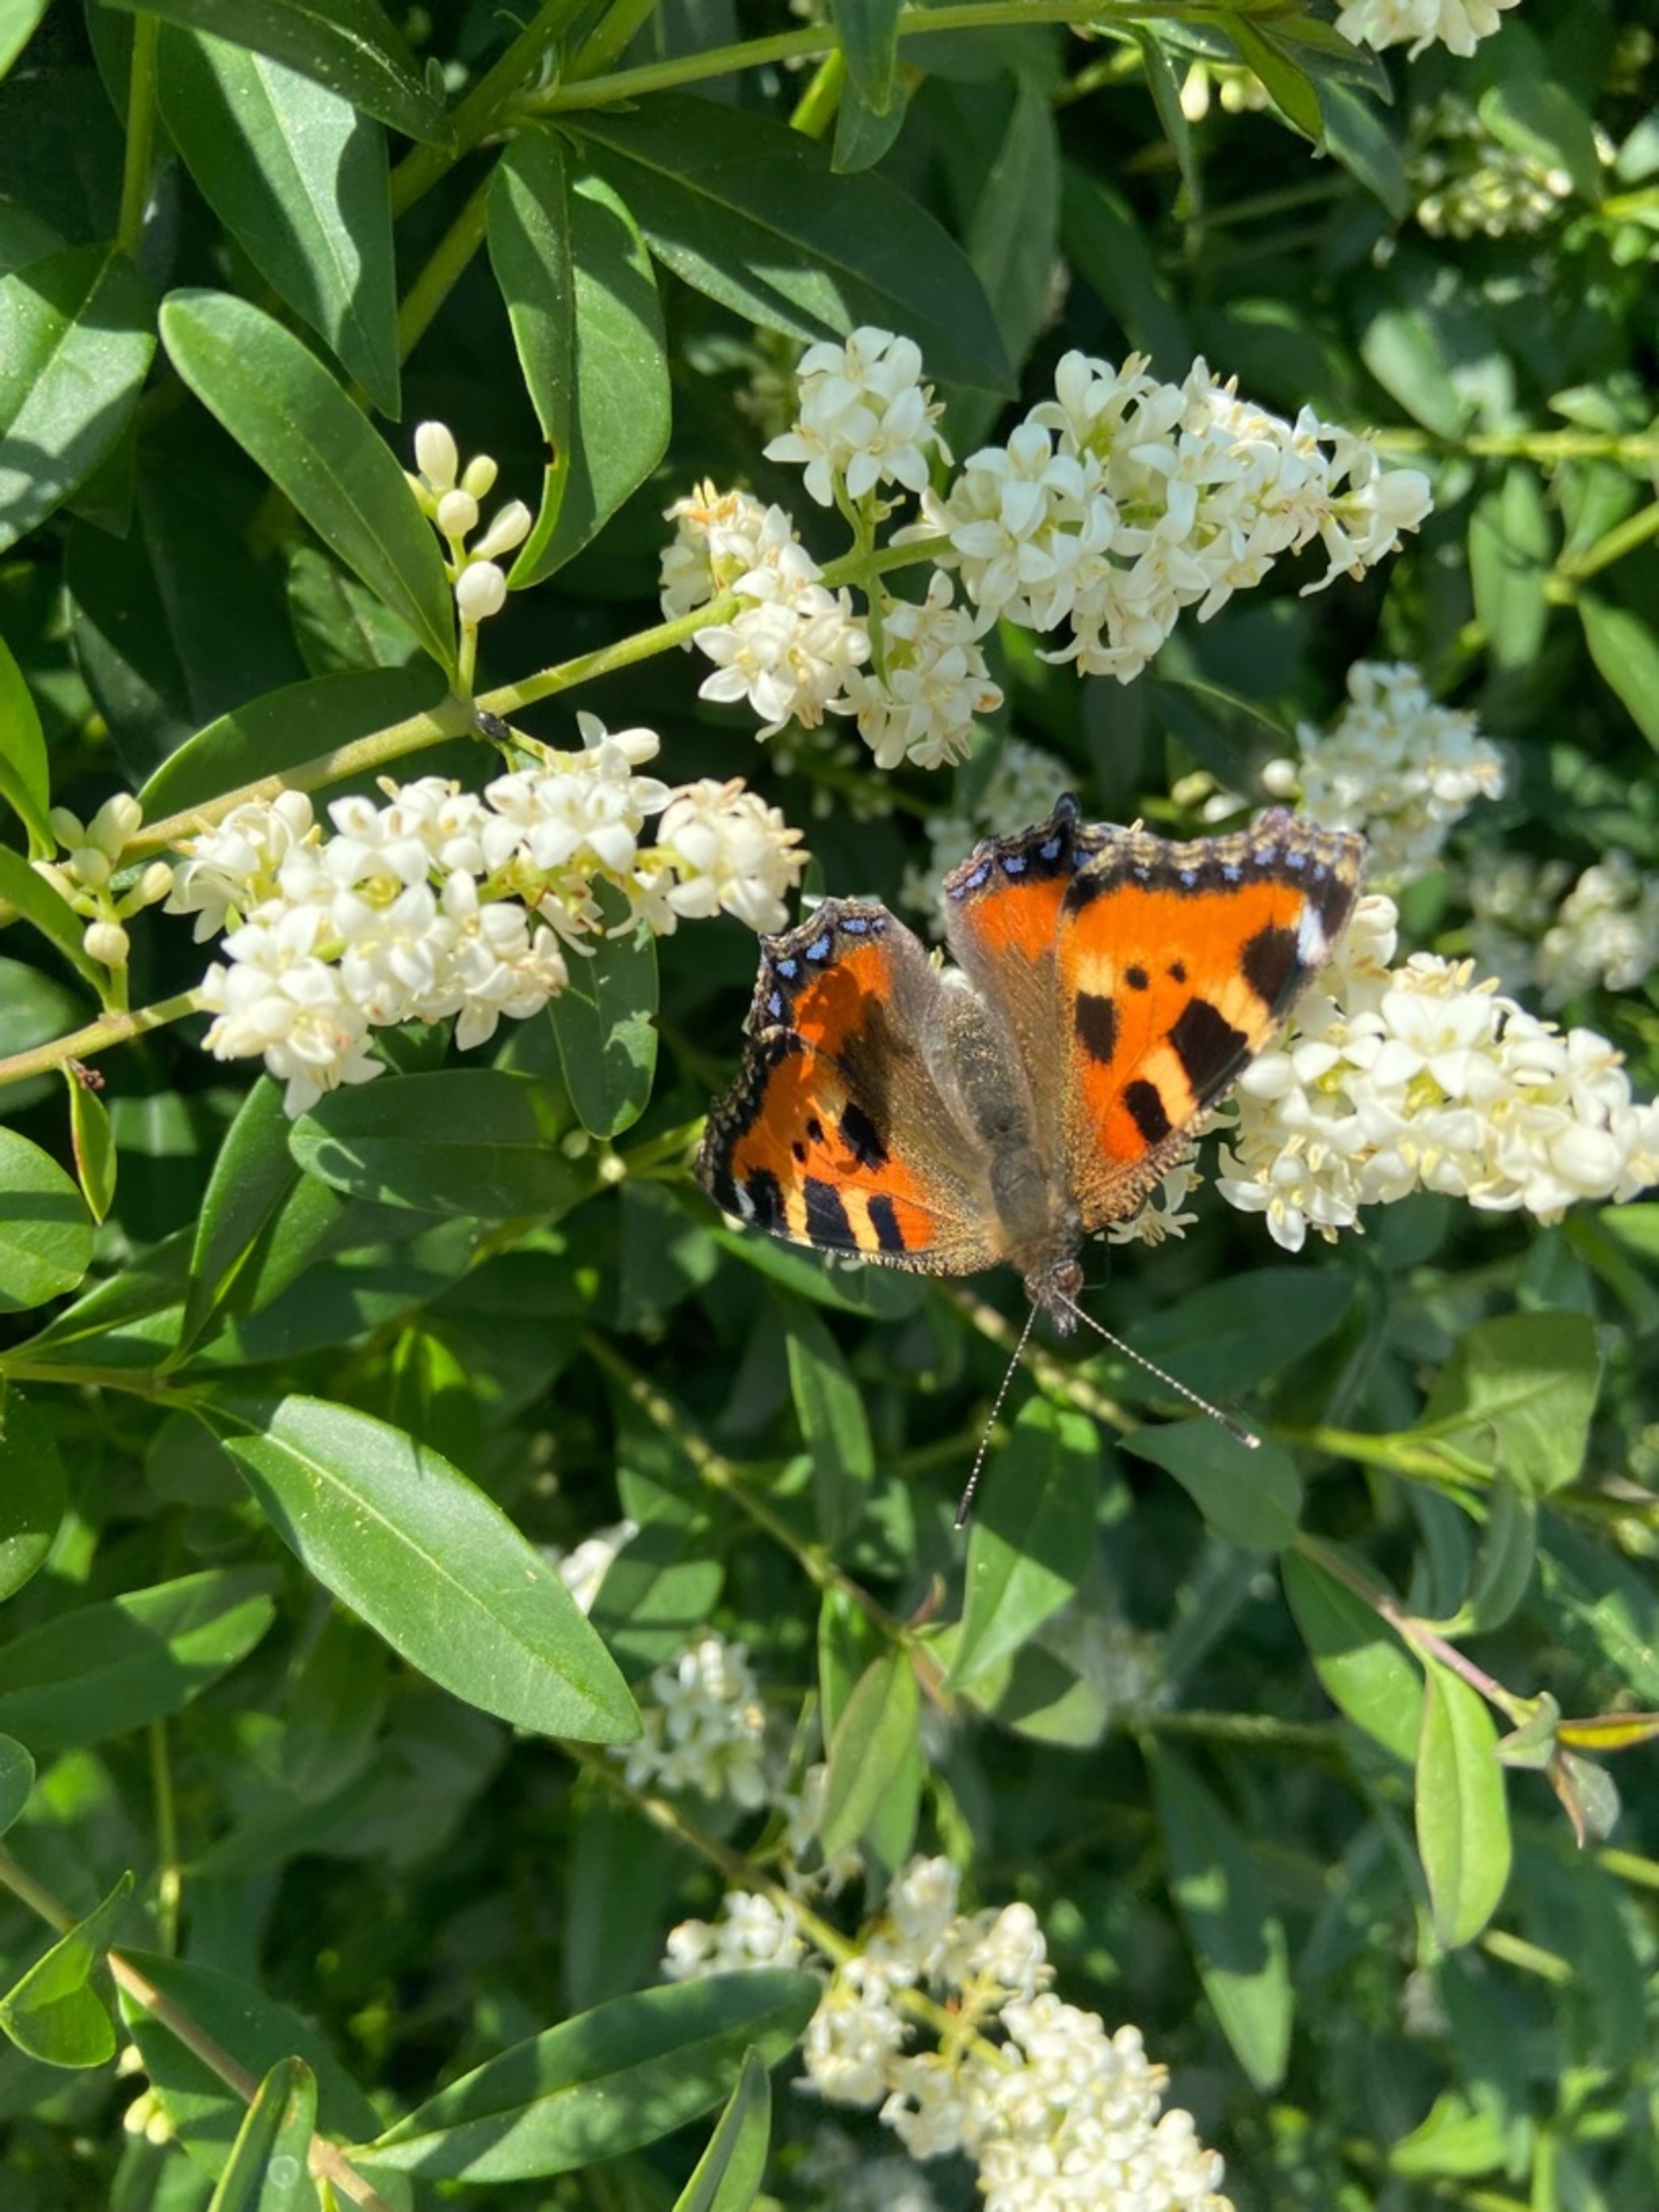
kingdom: Animalia
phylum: Arthropoda
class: Insecta
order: Lepidoptera
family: Nymphalidae
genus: Aglais
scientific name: Aglais urticae
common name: Nældens takvinge
